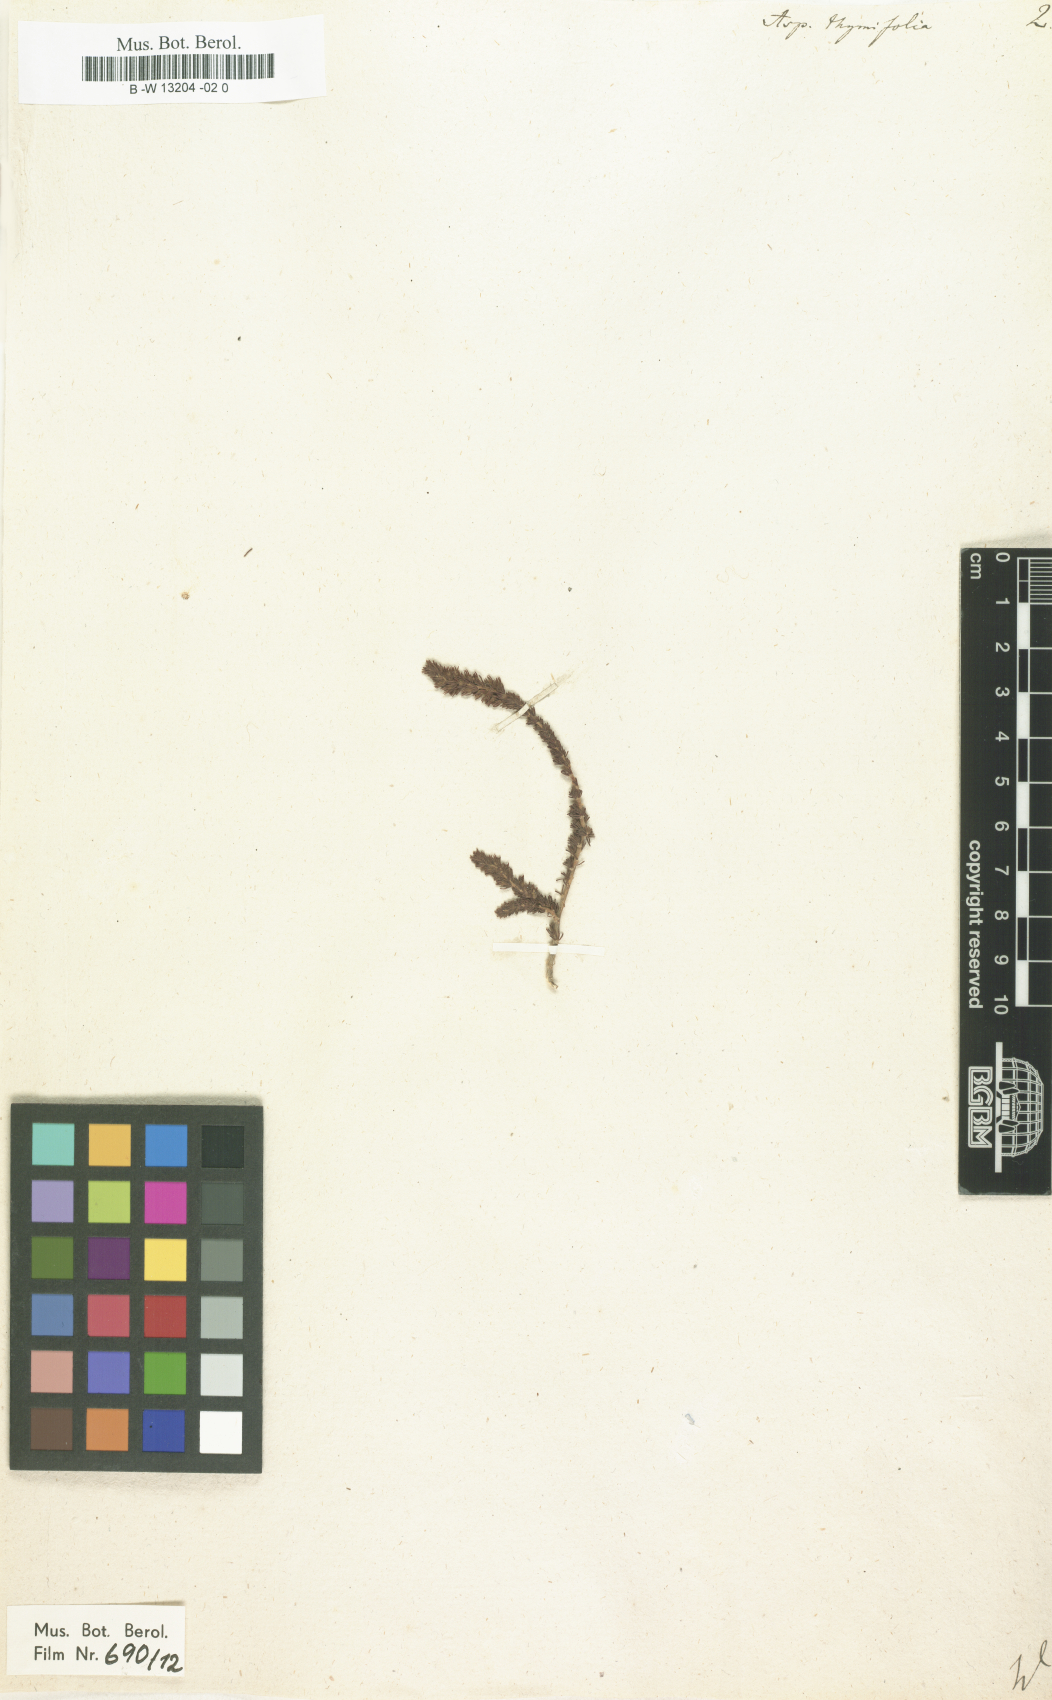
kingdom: Plantae
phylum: Tracheophyta
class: Magnoliopsida
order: Fabales
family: Fabaceae
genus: Aspalathus
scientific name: Aspalathus
